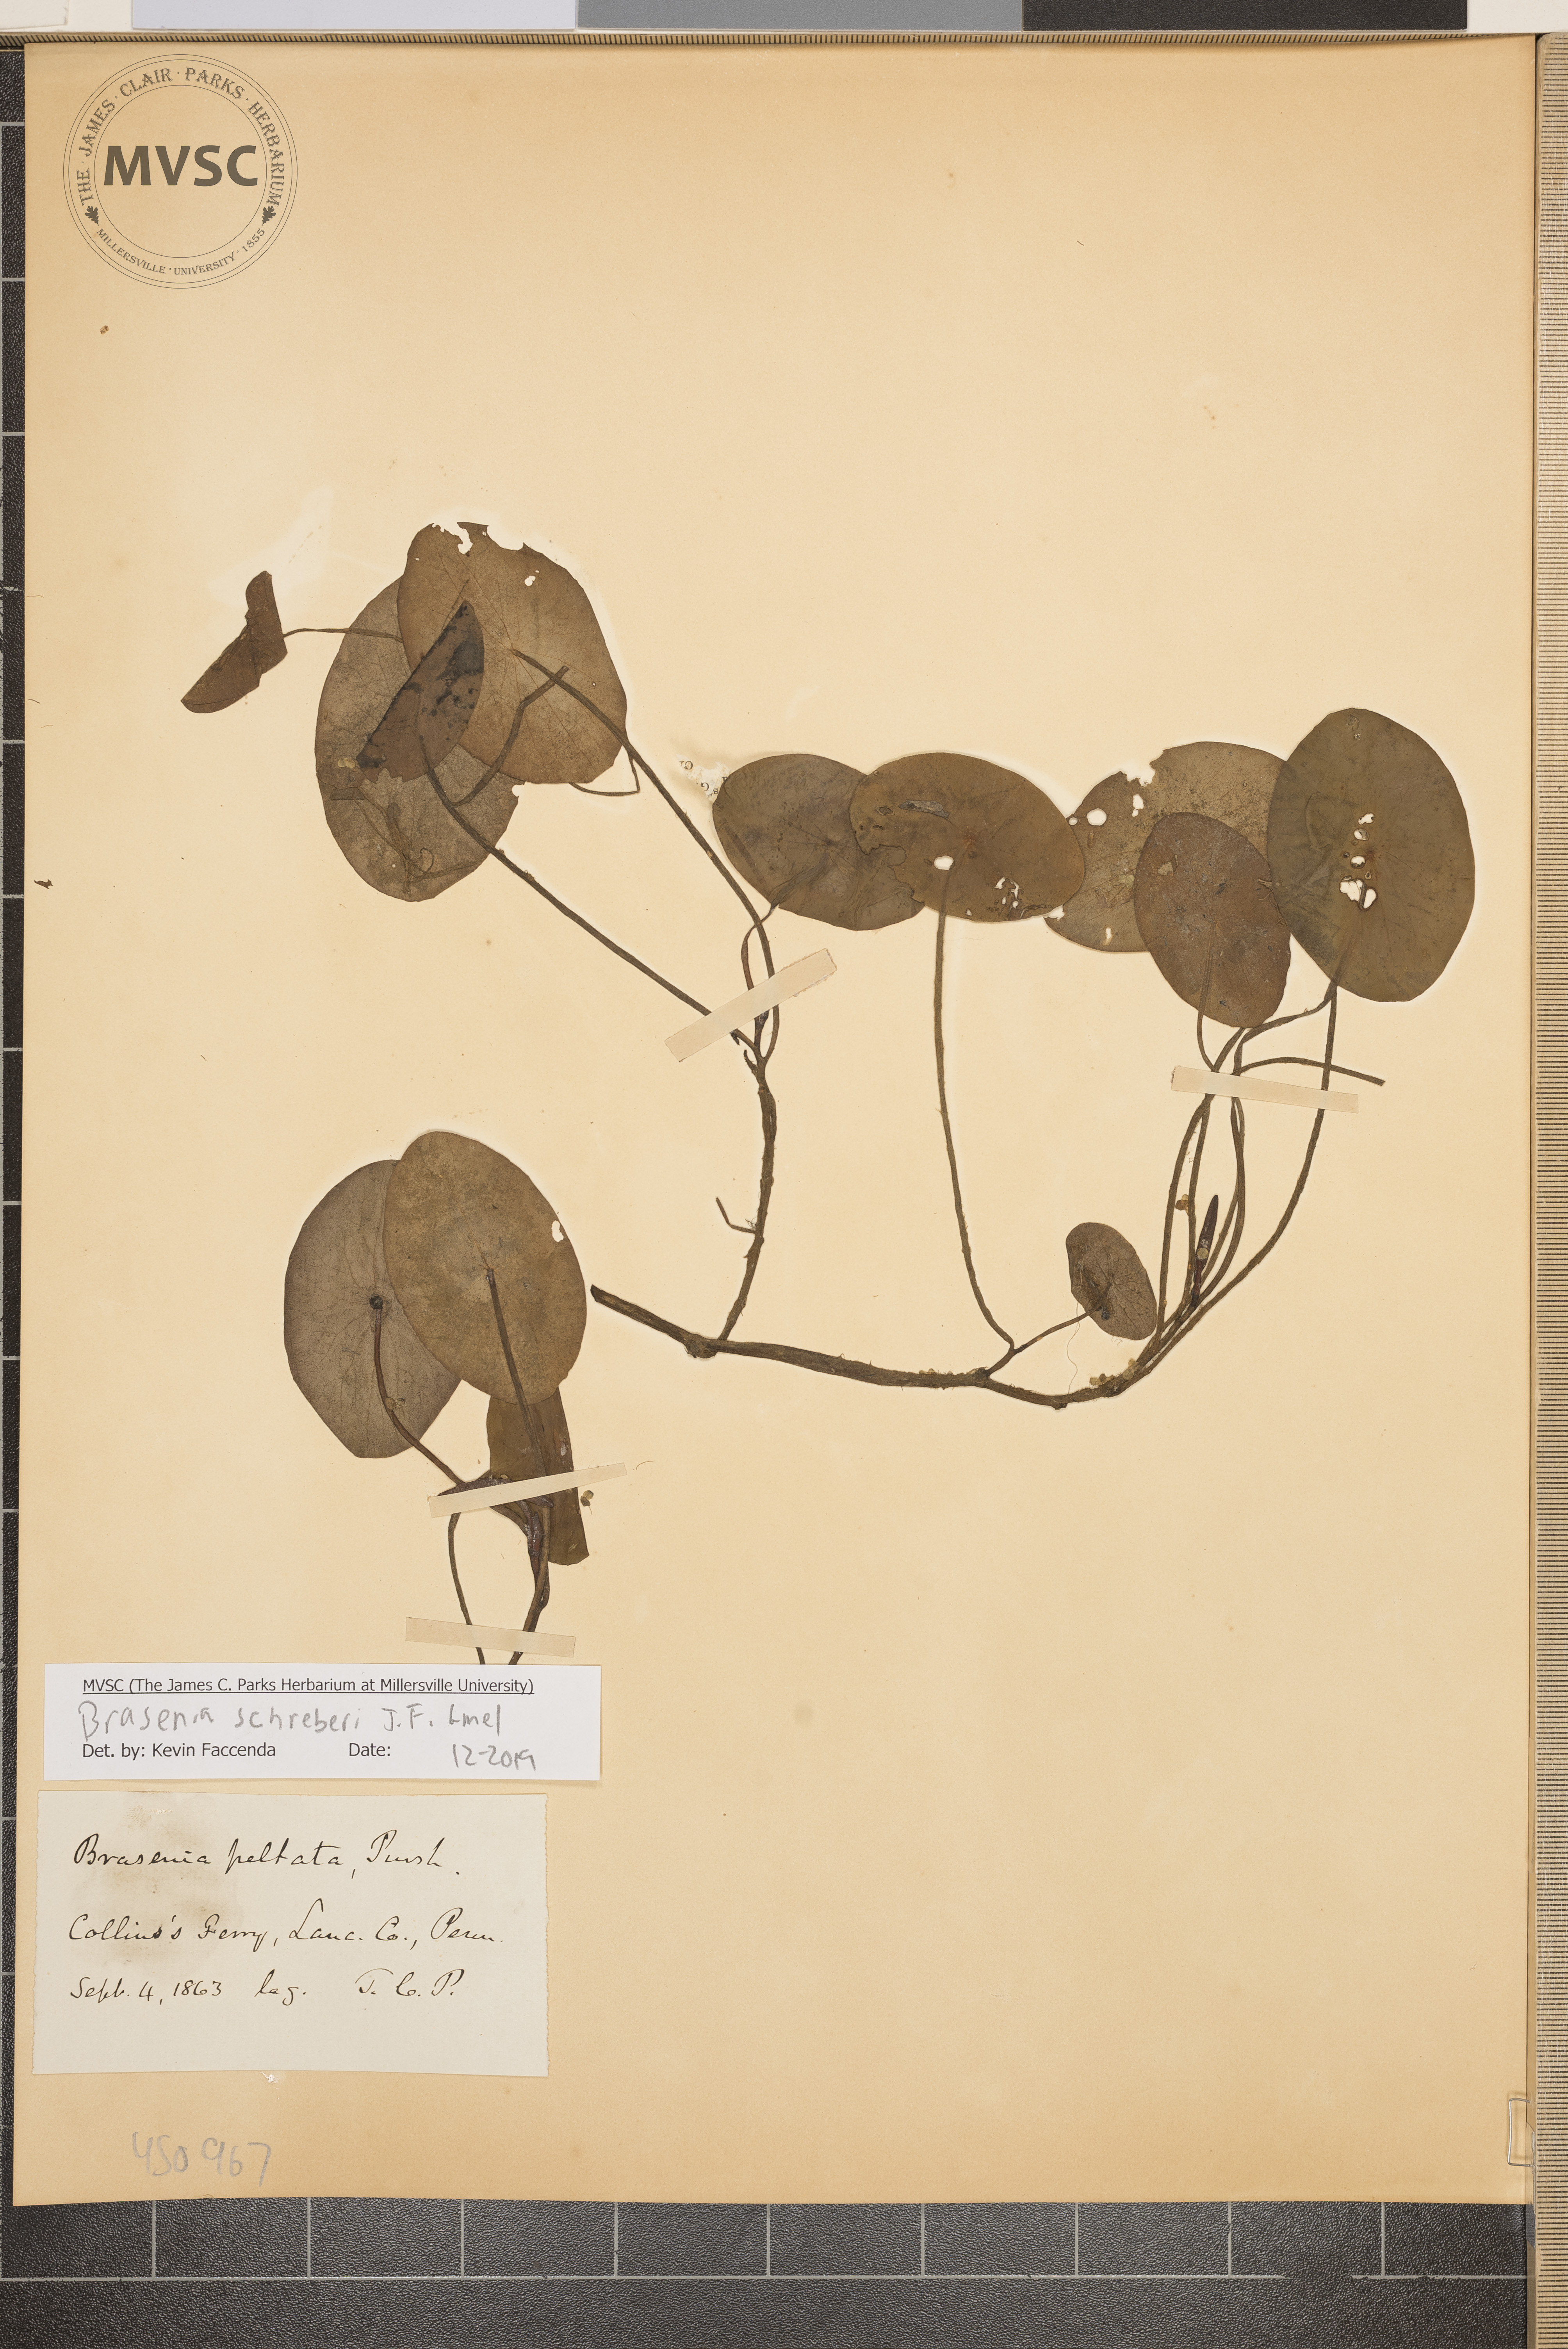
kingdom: Plantae
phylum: Tracheophyta
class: Magnoliopsida
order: Nymphaeales
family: Cabombaceae
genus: Brasenia
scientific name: Brasenia schreberi
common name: Water-shield
